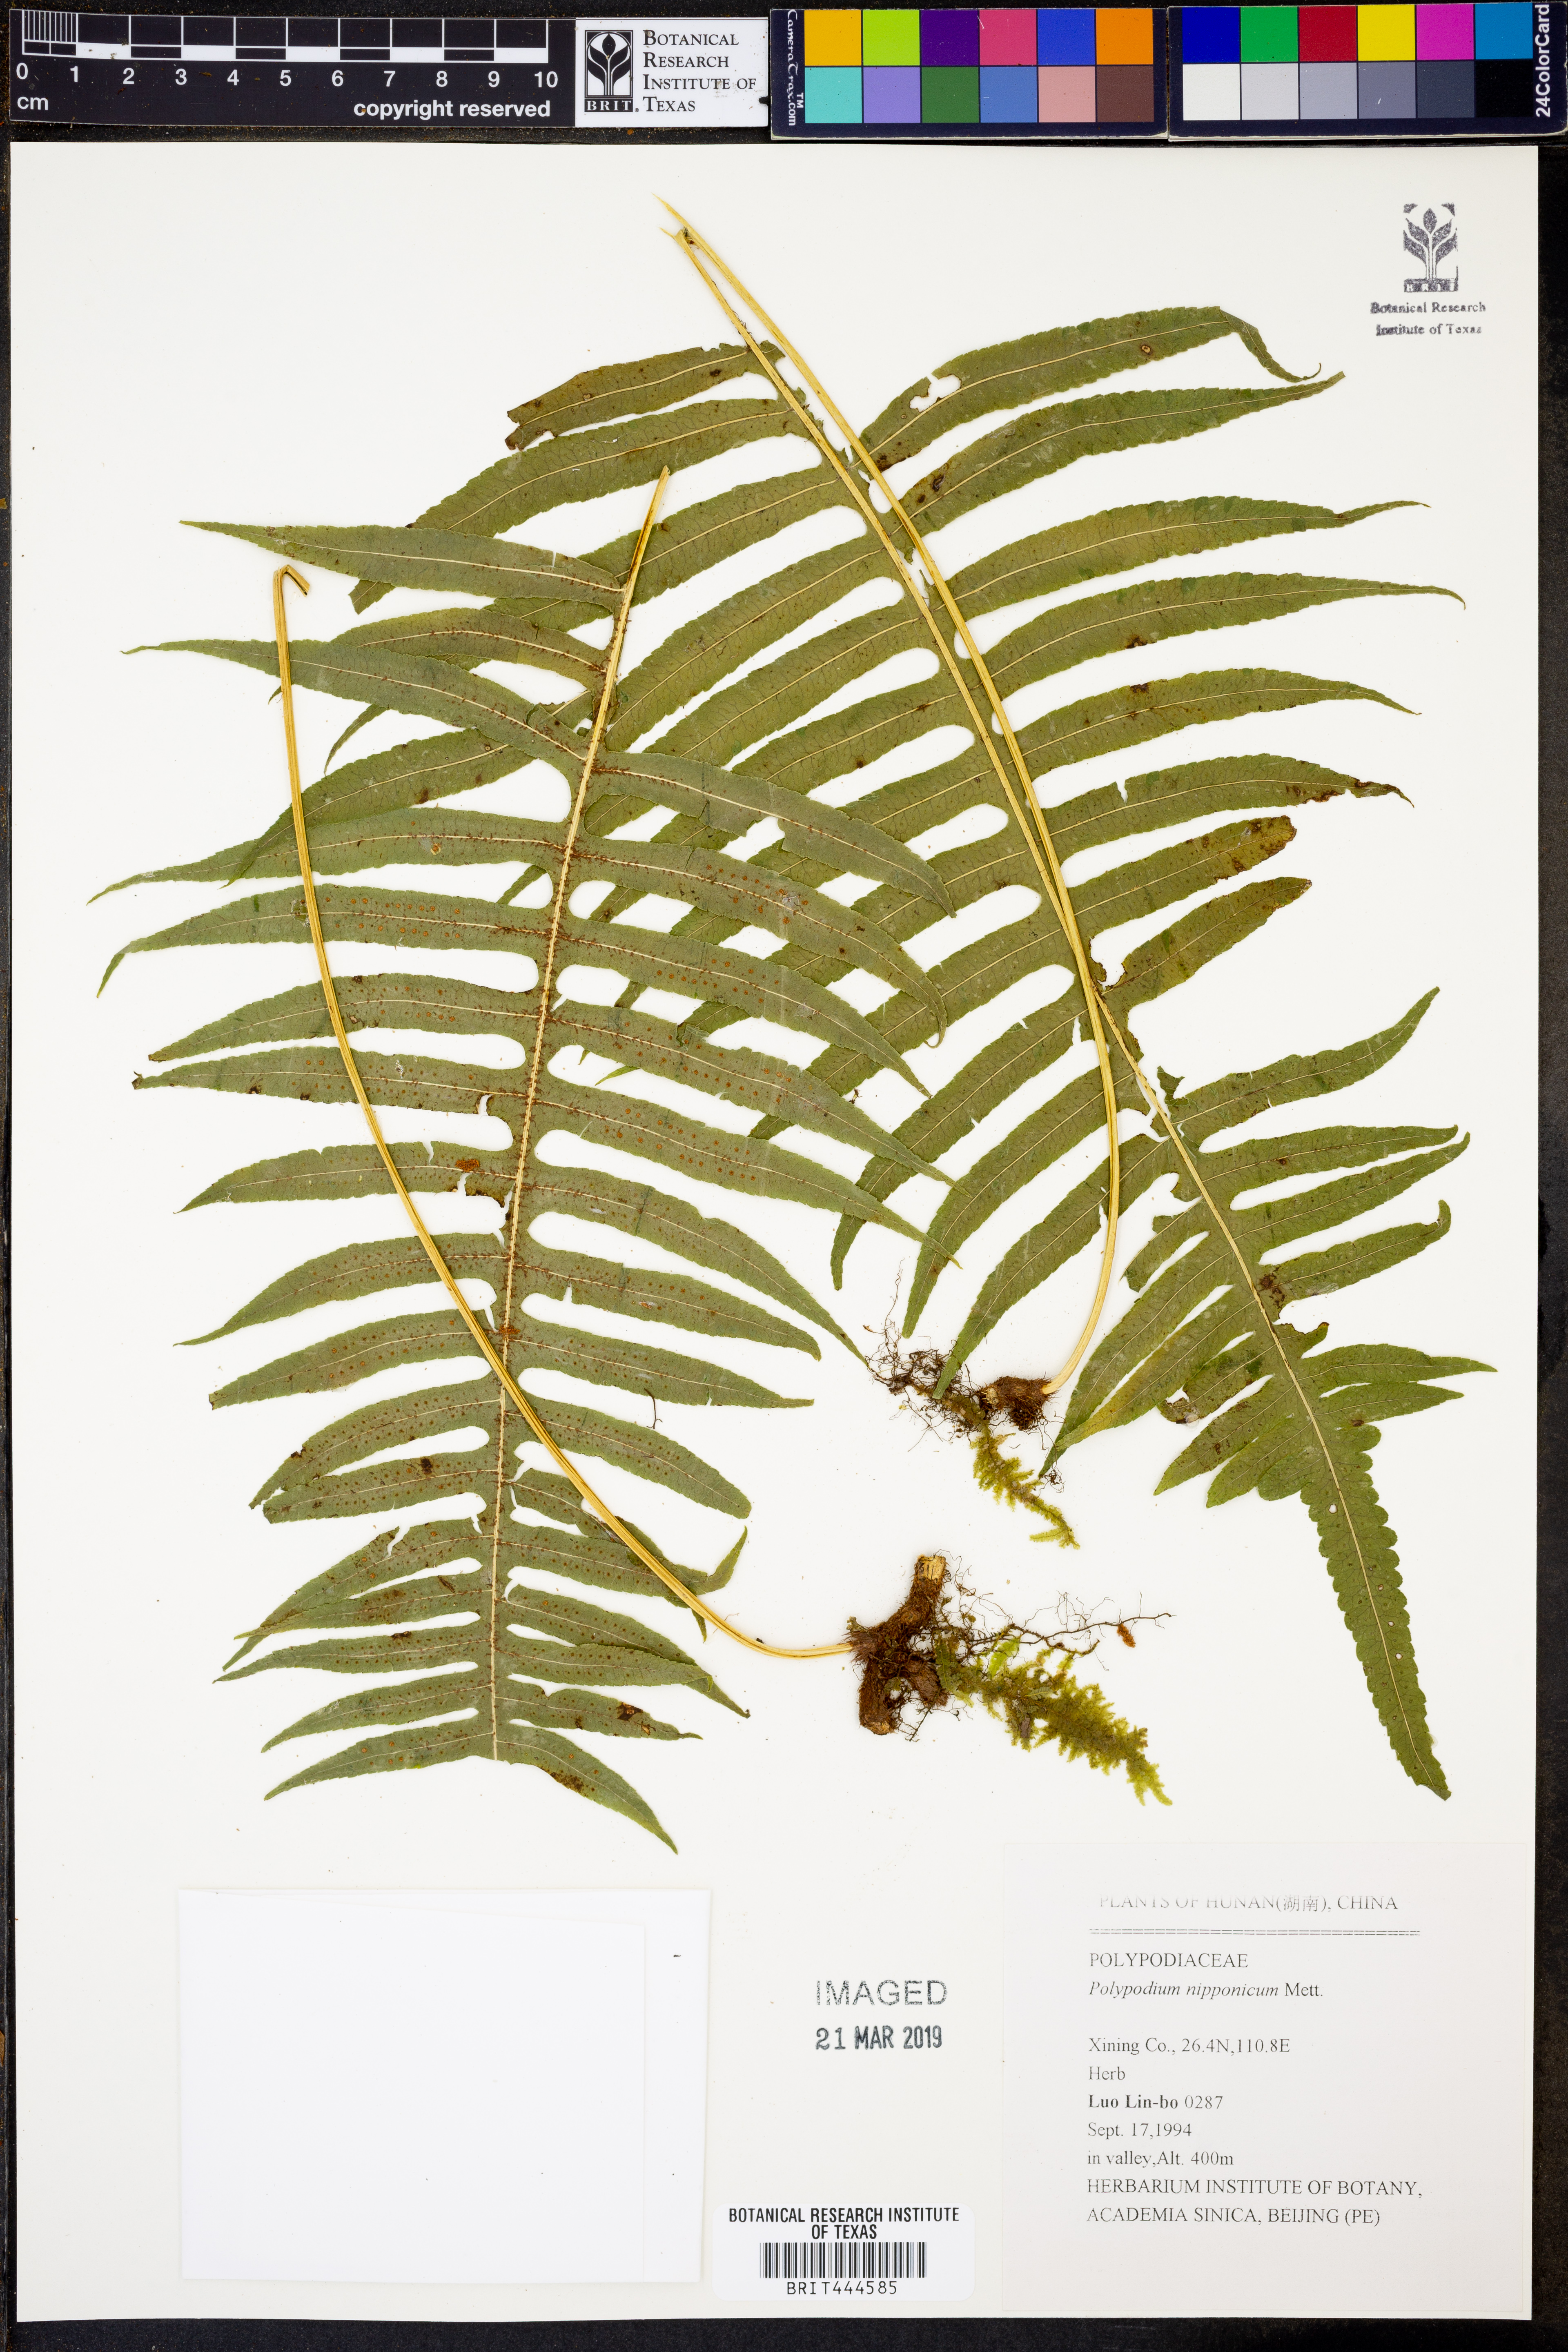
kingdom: Plantae
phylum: Tracheophyta
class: Polypodiopsida
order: Polypodiales
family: Polypodiaceae
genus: Goniophlebium
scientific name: Goniophlebium niponicum
